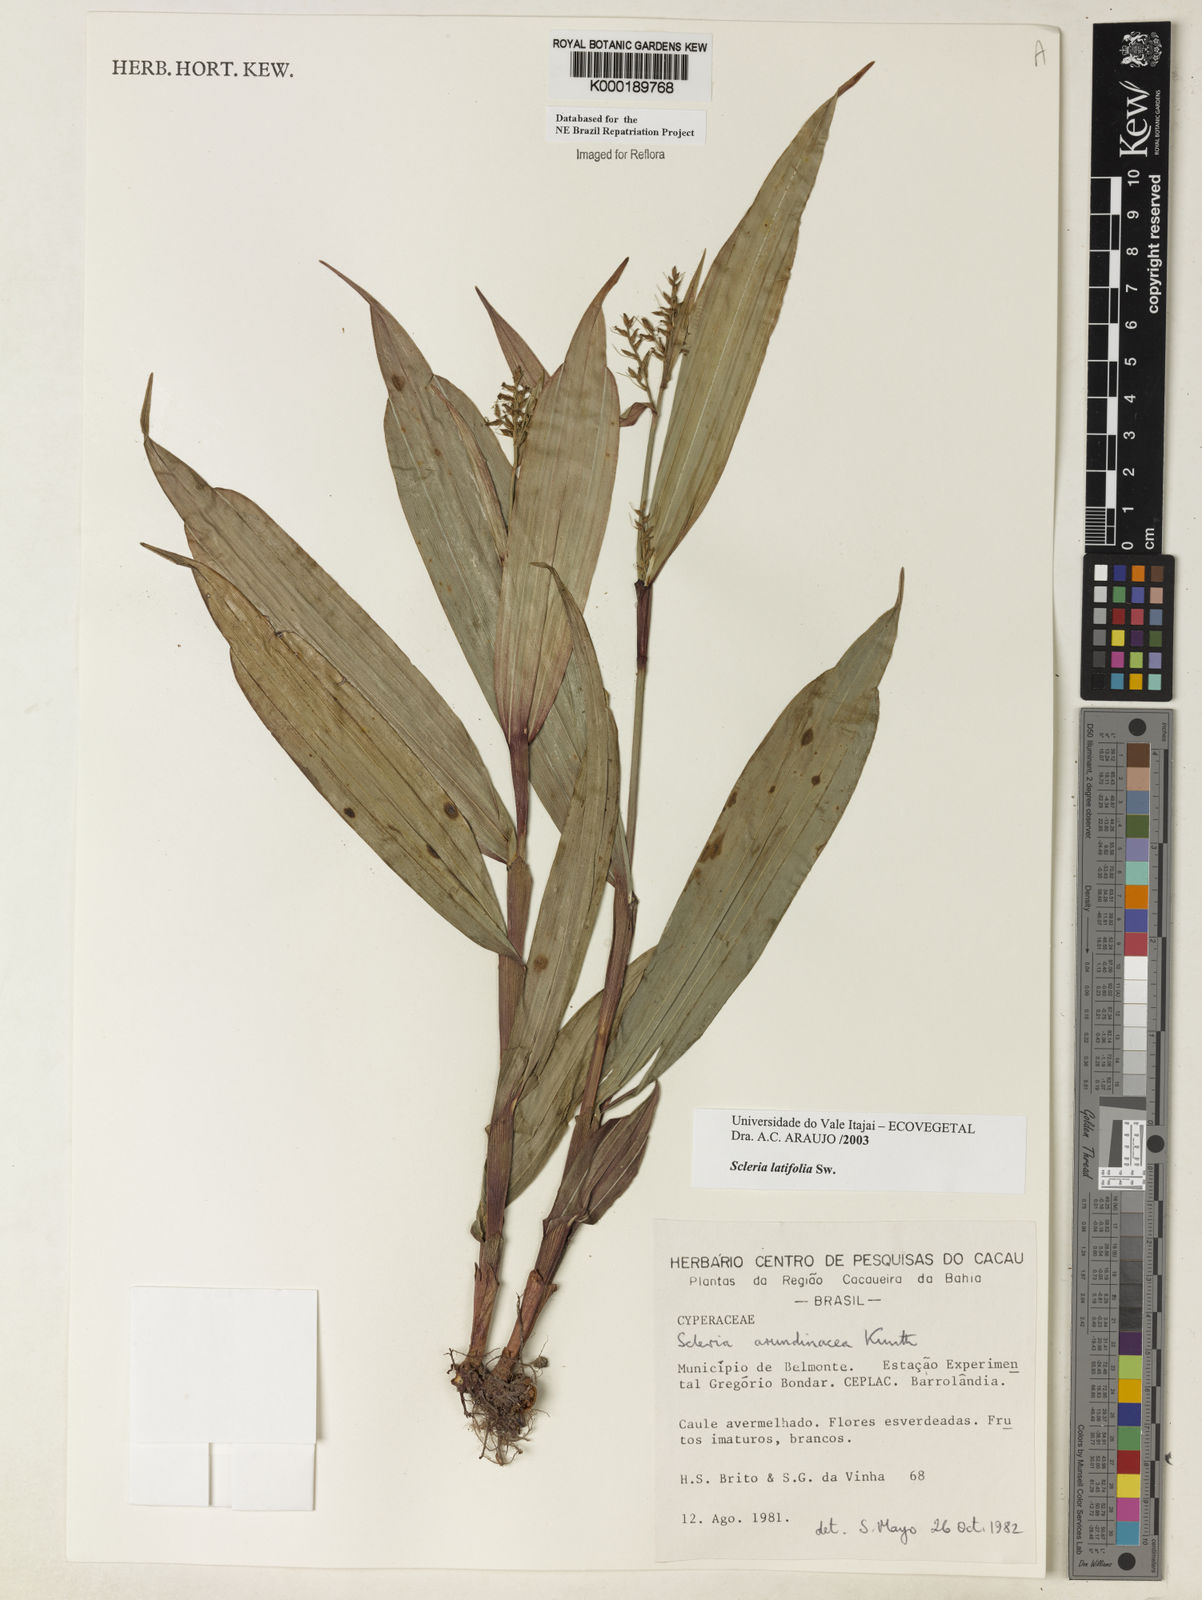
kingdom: Plantae
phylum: Tracheophyta
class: Liliopsida
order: Poales
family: Cyperaceae
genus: Scleria
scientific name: Scleria latifolia
